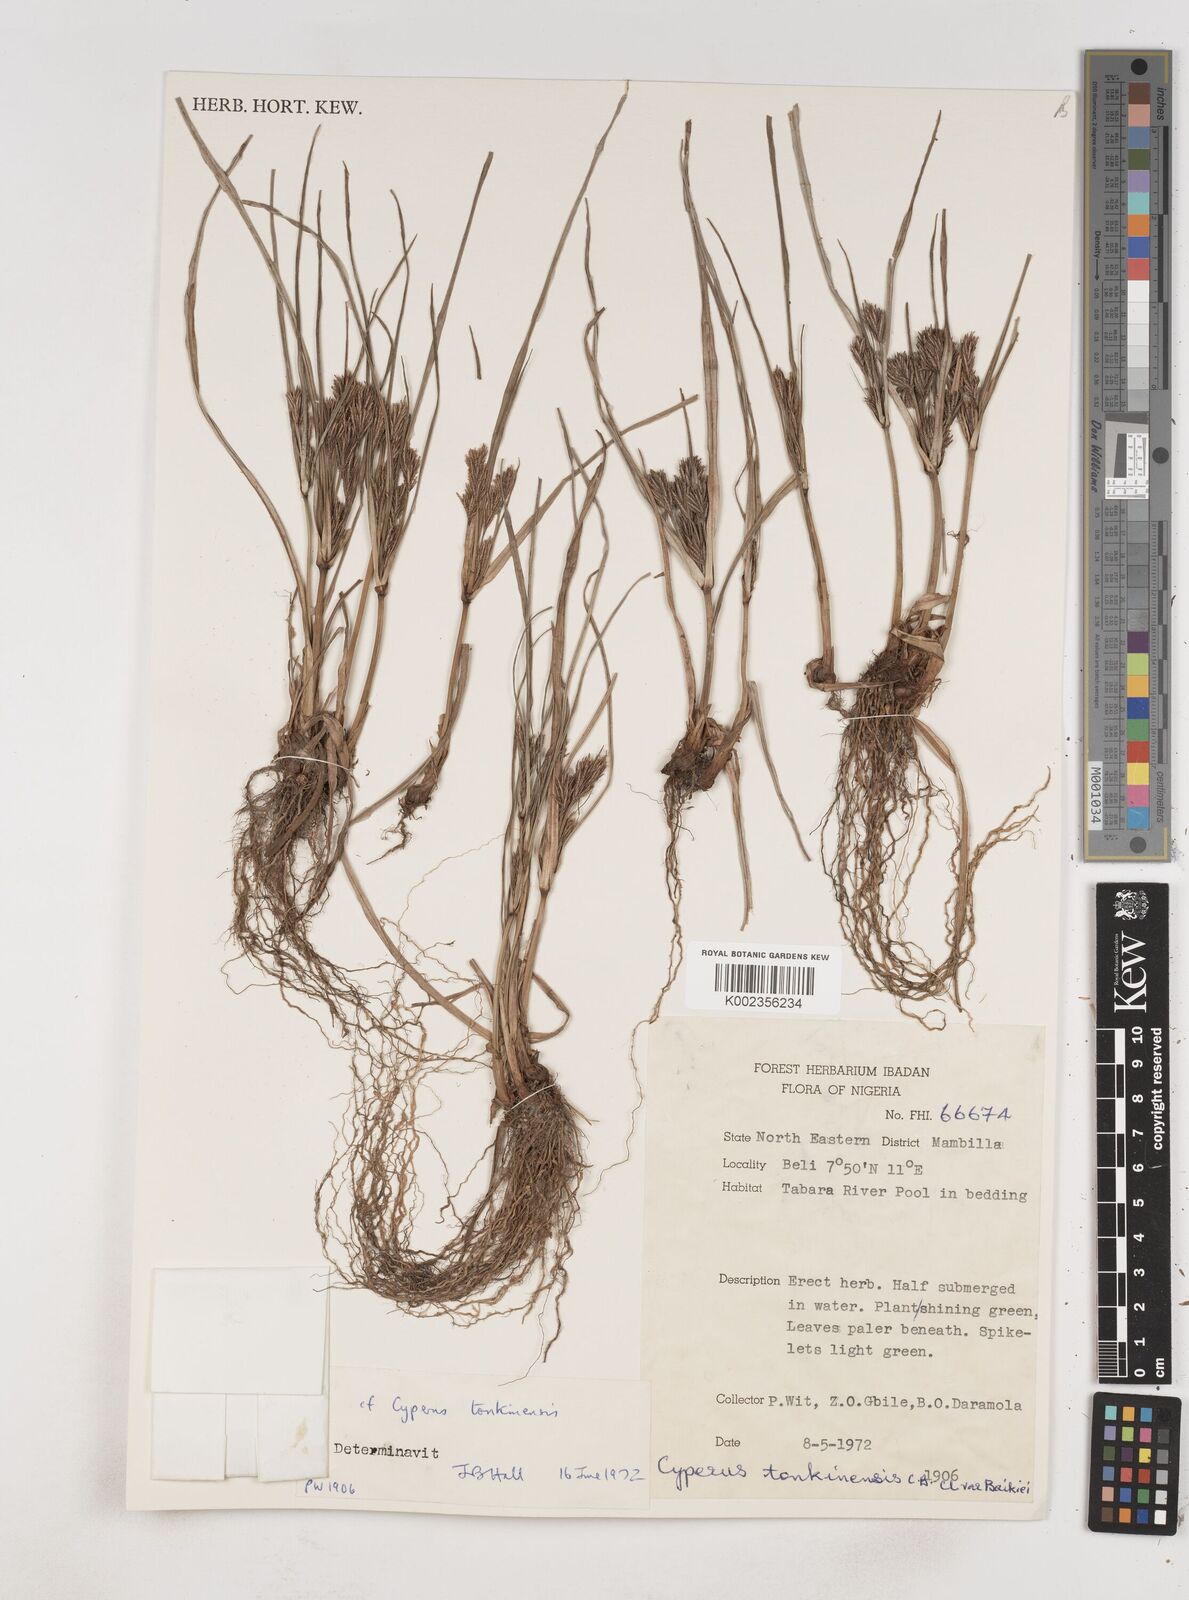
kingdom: Plantae
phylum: Tracheophyta
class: Liliopsida
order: Poales
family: Cyperaceae
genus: Cyperus
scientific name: Cyperus tonkinensis
